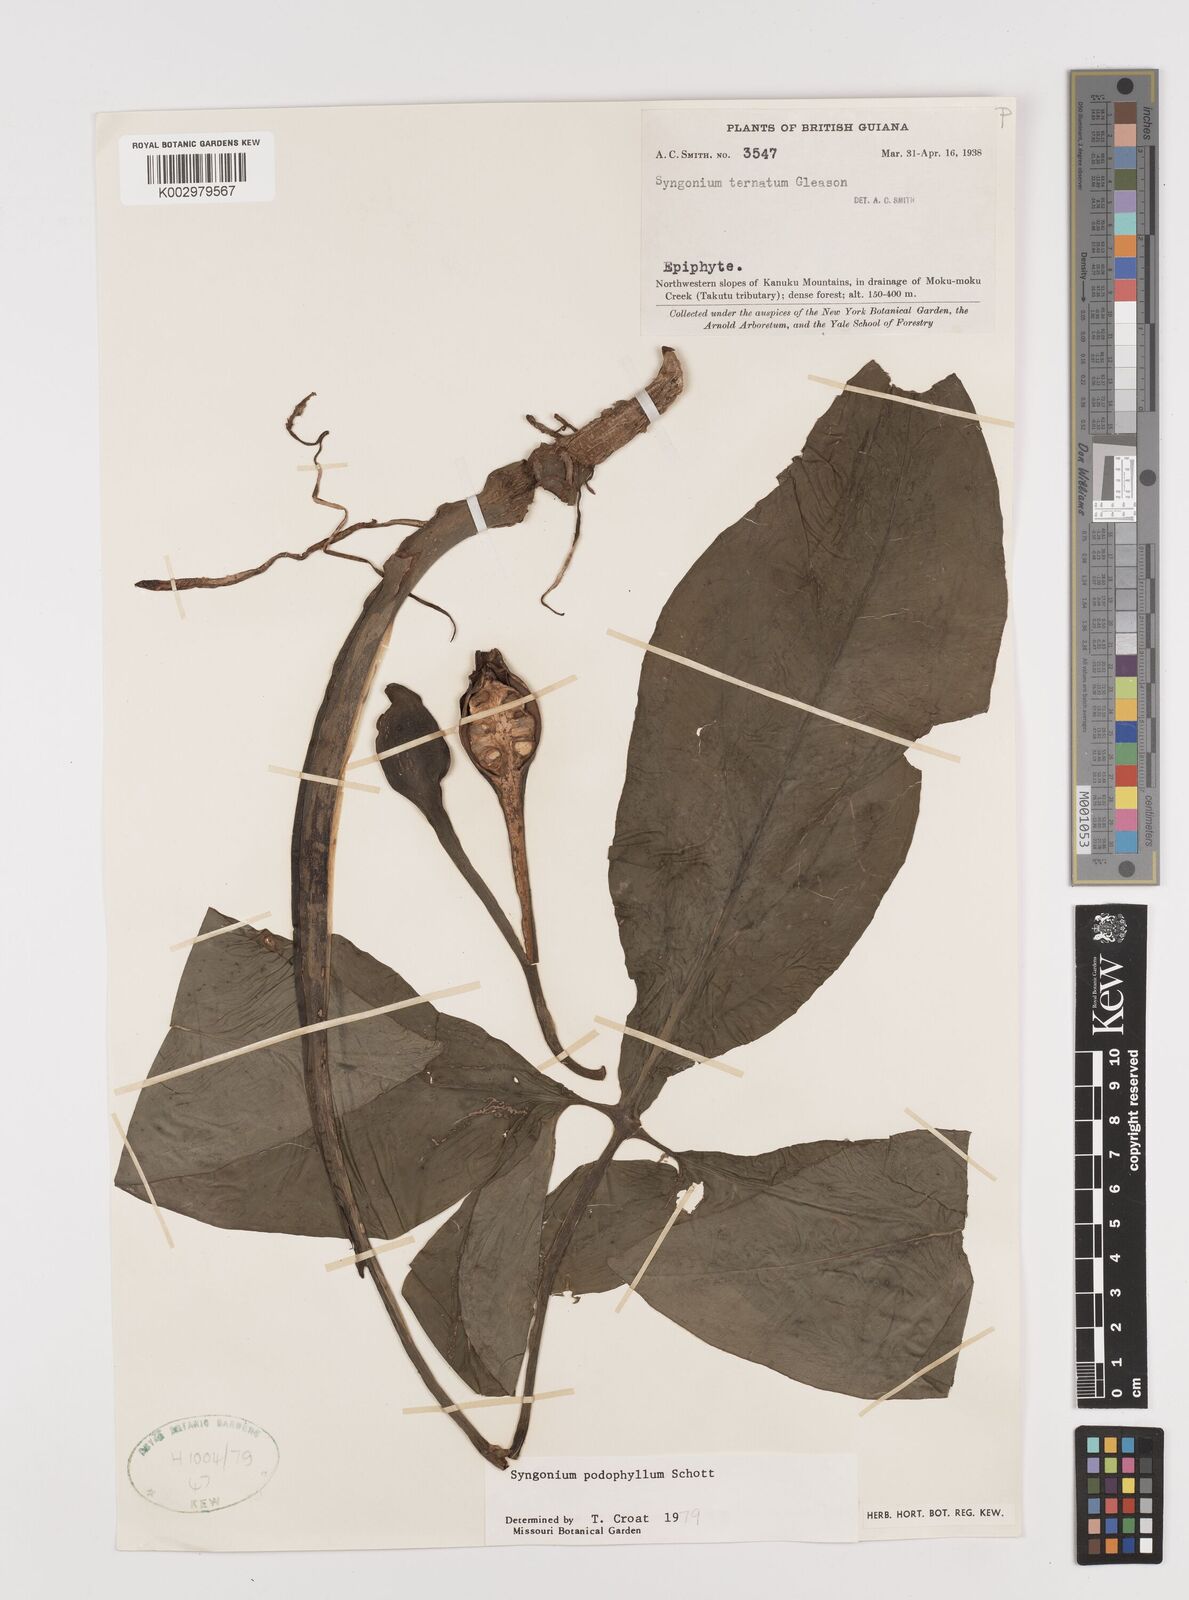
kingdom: Plantae
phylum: Tracheophyta
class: Liliopsida
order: Alismatales
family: Araceae
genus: Syngonium
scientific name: Syngonium podophyllum
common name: American evergreen
